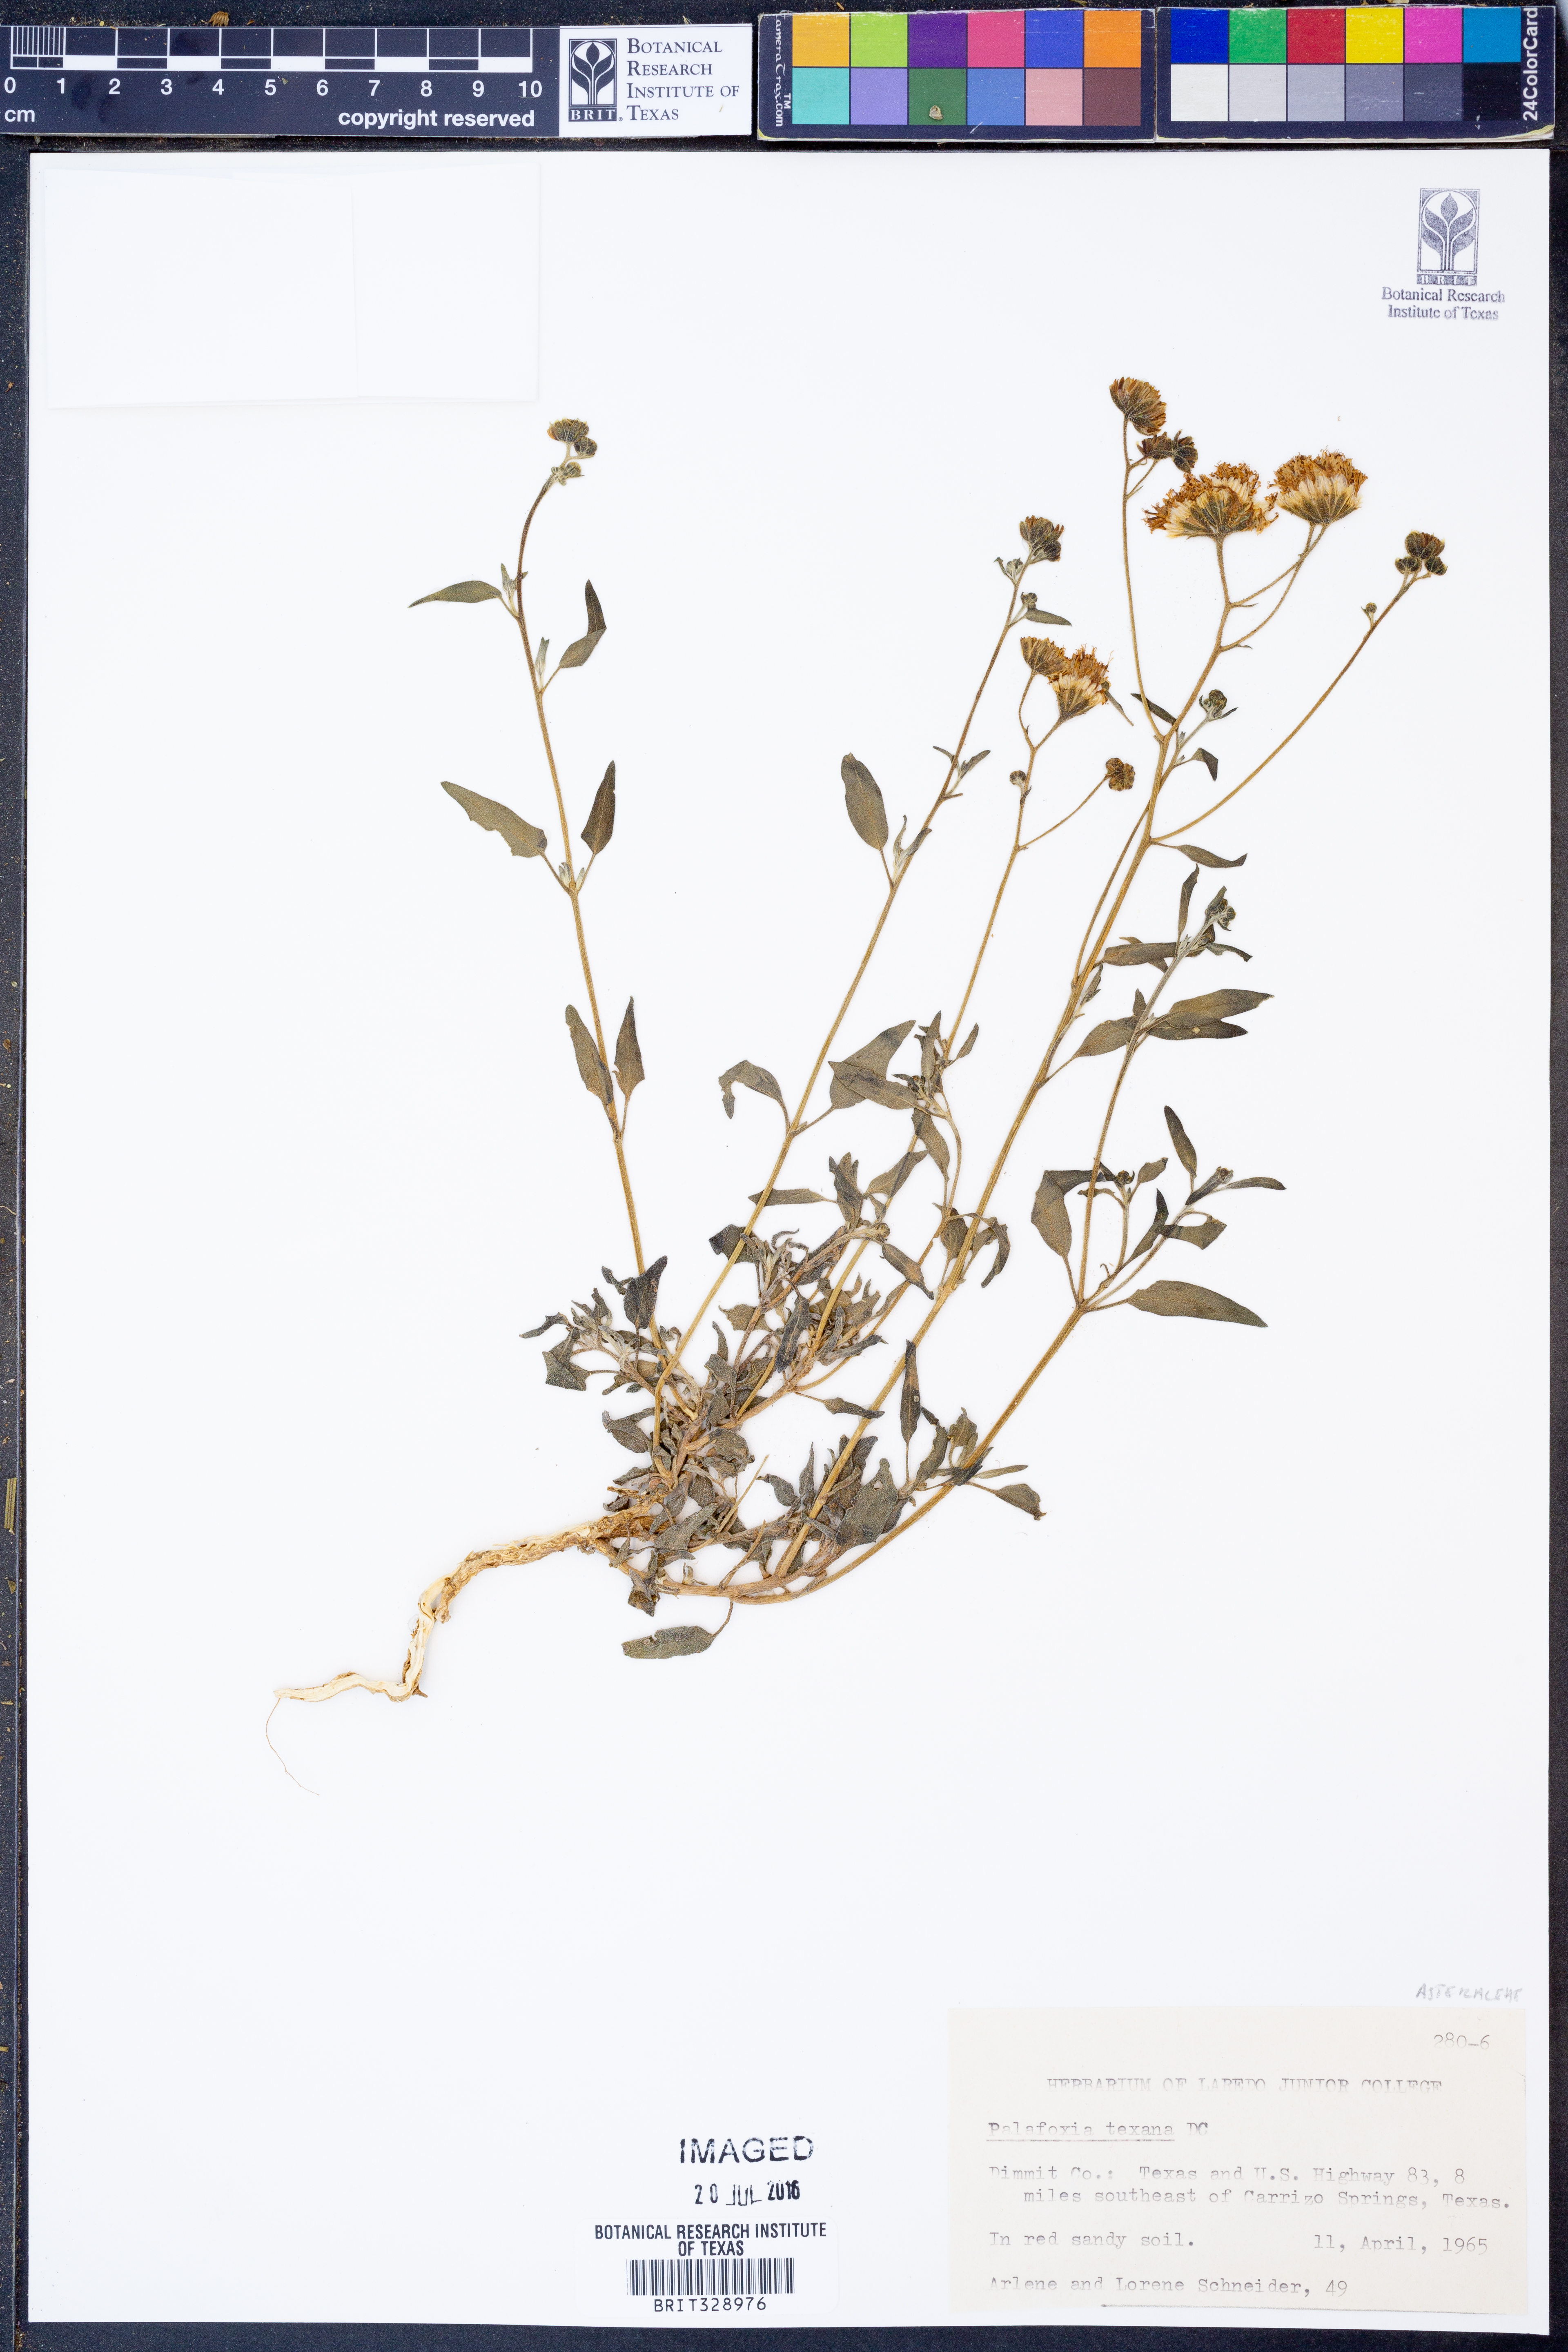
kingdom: Plantae
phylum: Tracheophyta
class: Magnoliopsida
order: Asterales
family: Asteraceae
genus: Palafoxia
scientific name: Palafoxia texana
